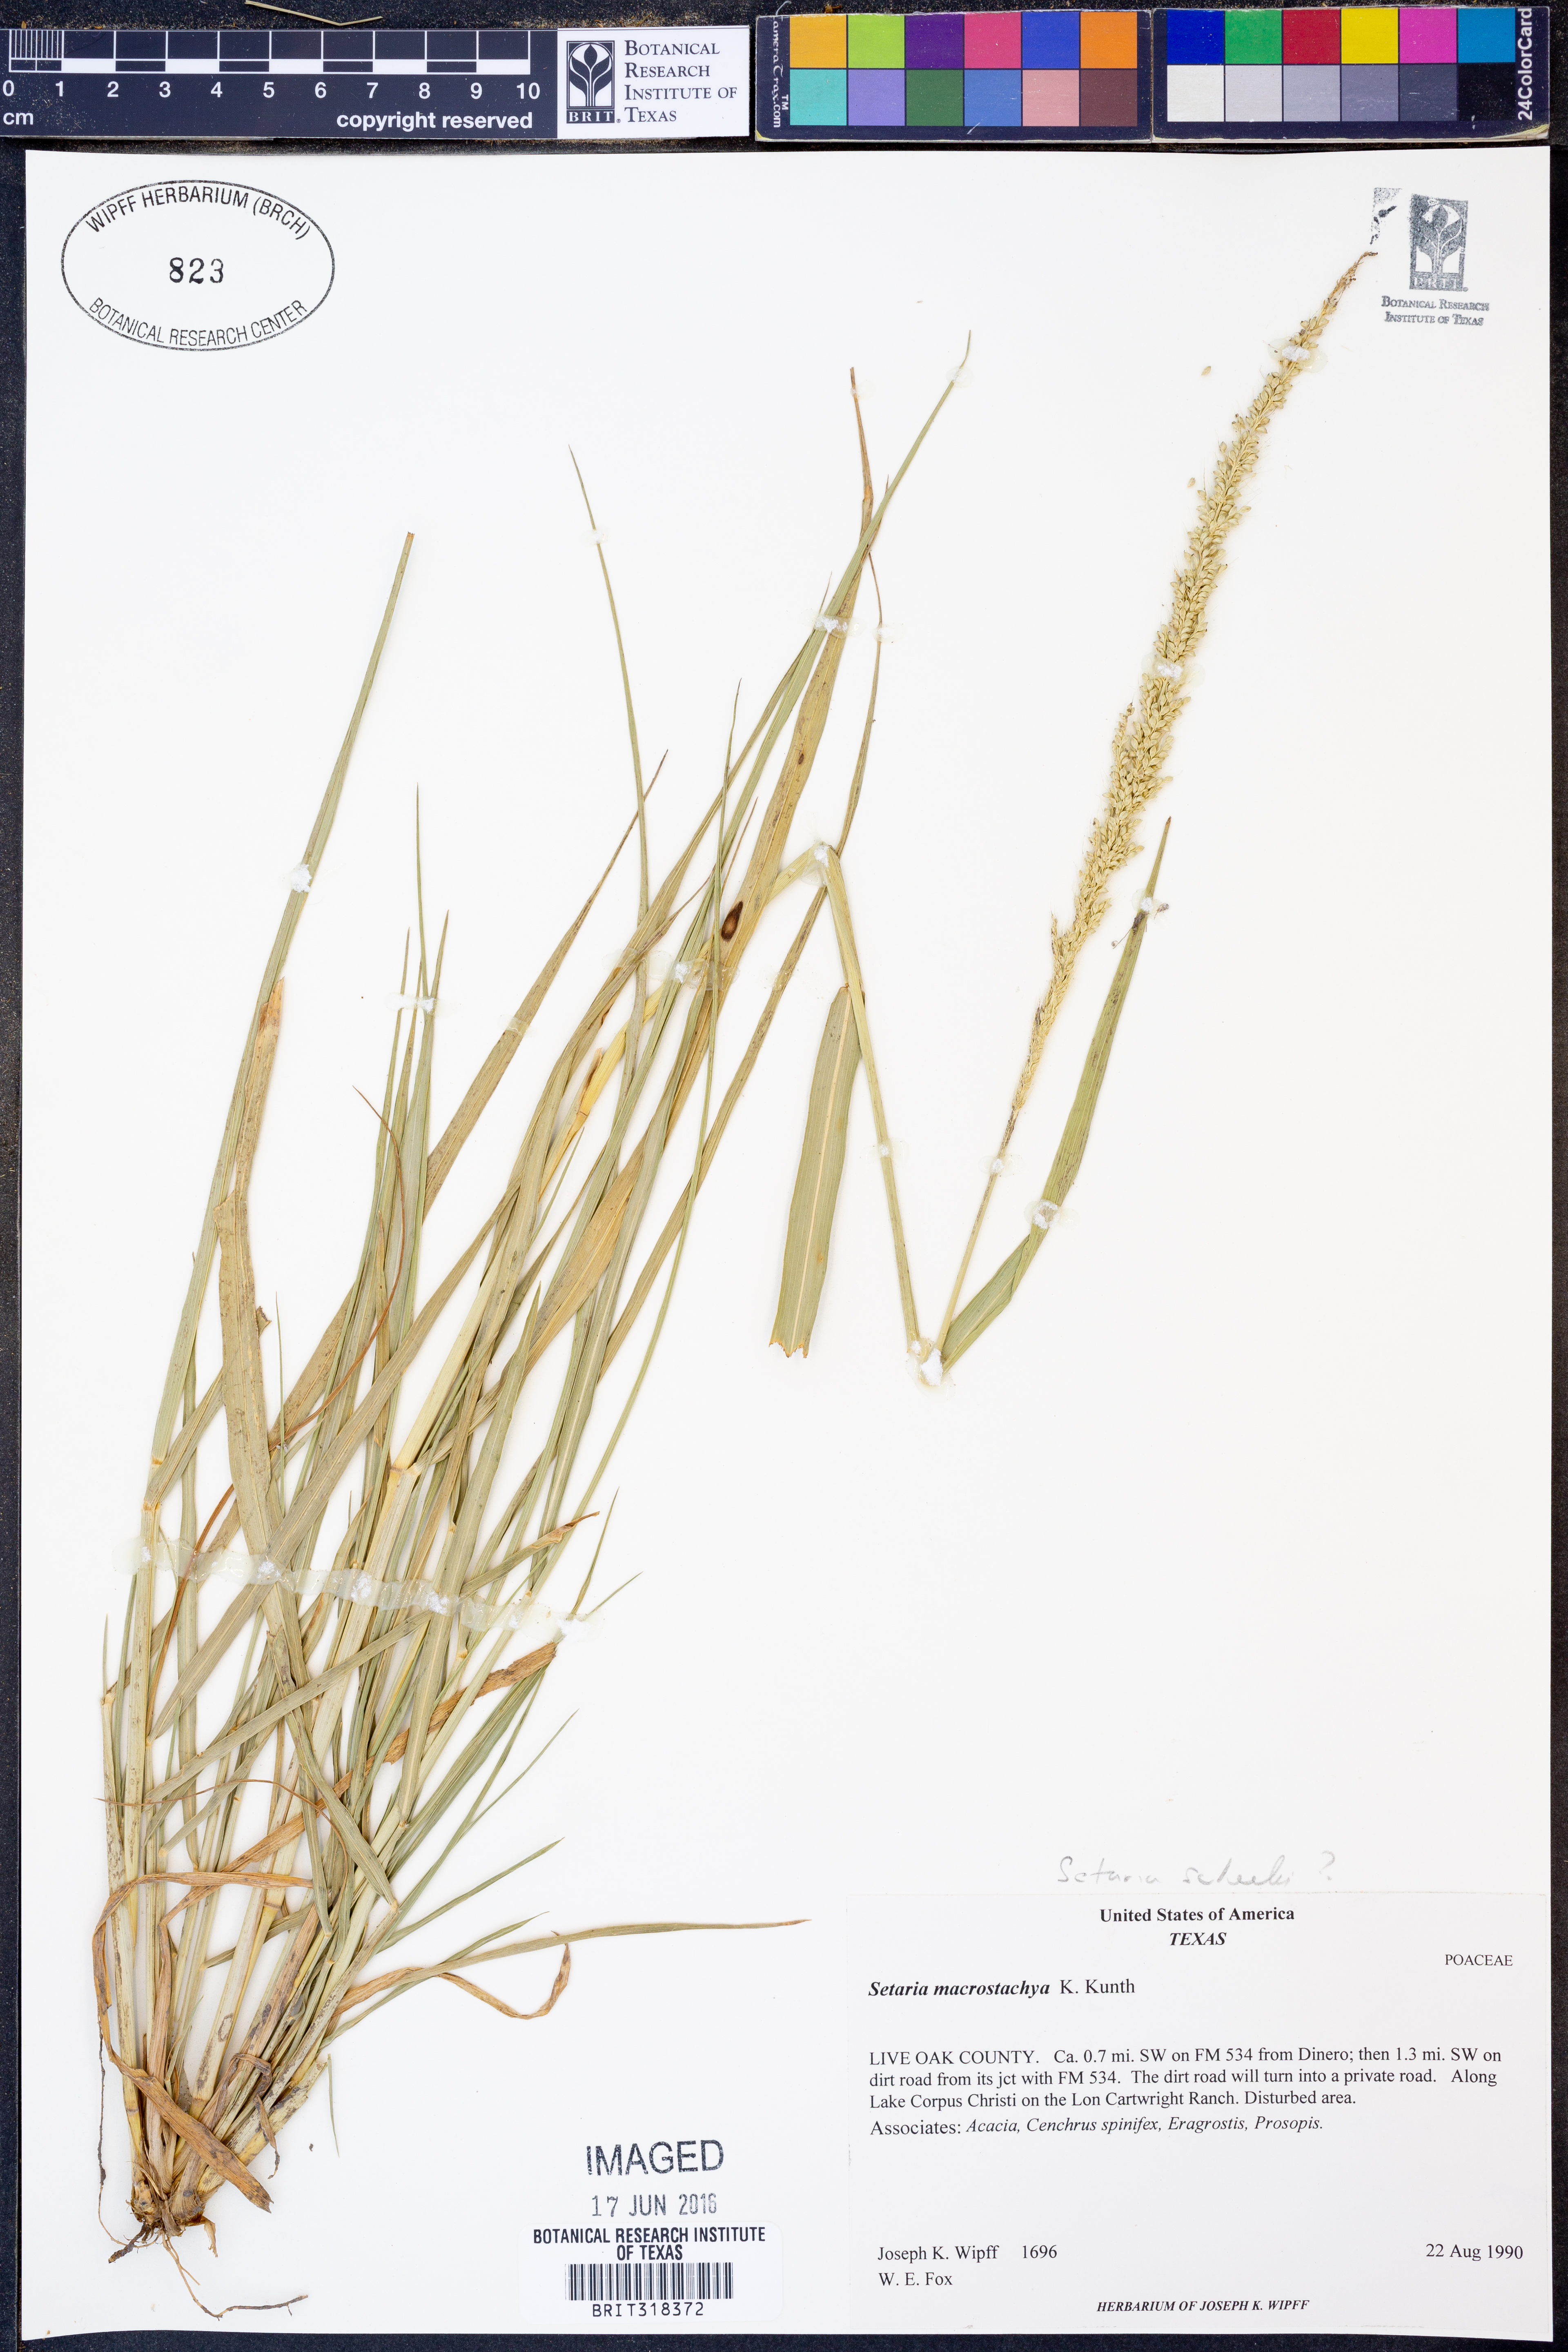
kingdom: Plantae
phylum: Tracheophyta
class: Liliopsida
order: Poales
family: Poaceae
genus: Setaria
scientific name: Setaria scheelei
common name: Southwestern bristle grass
